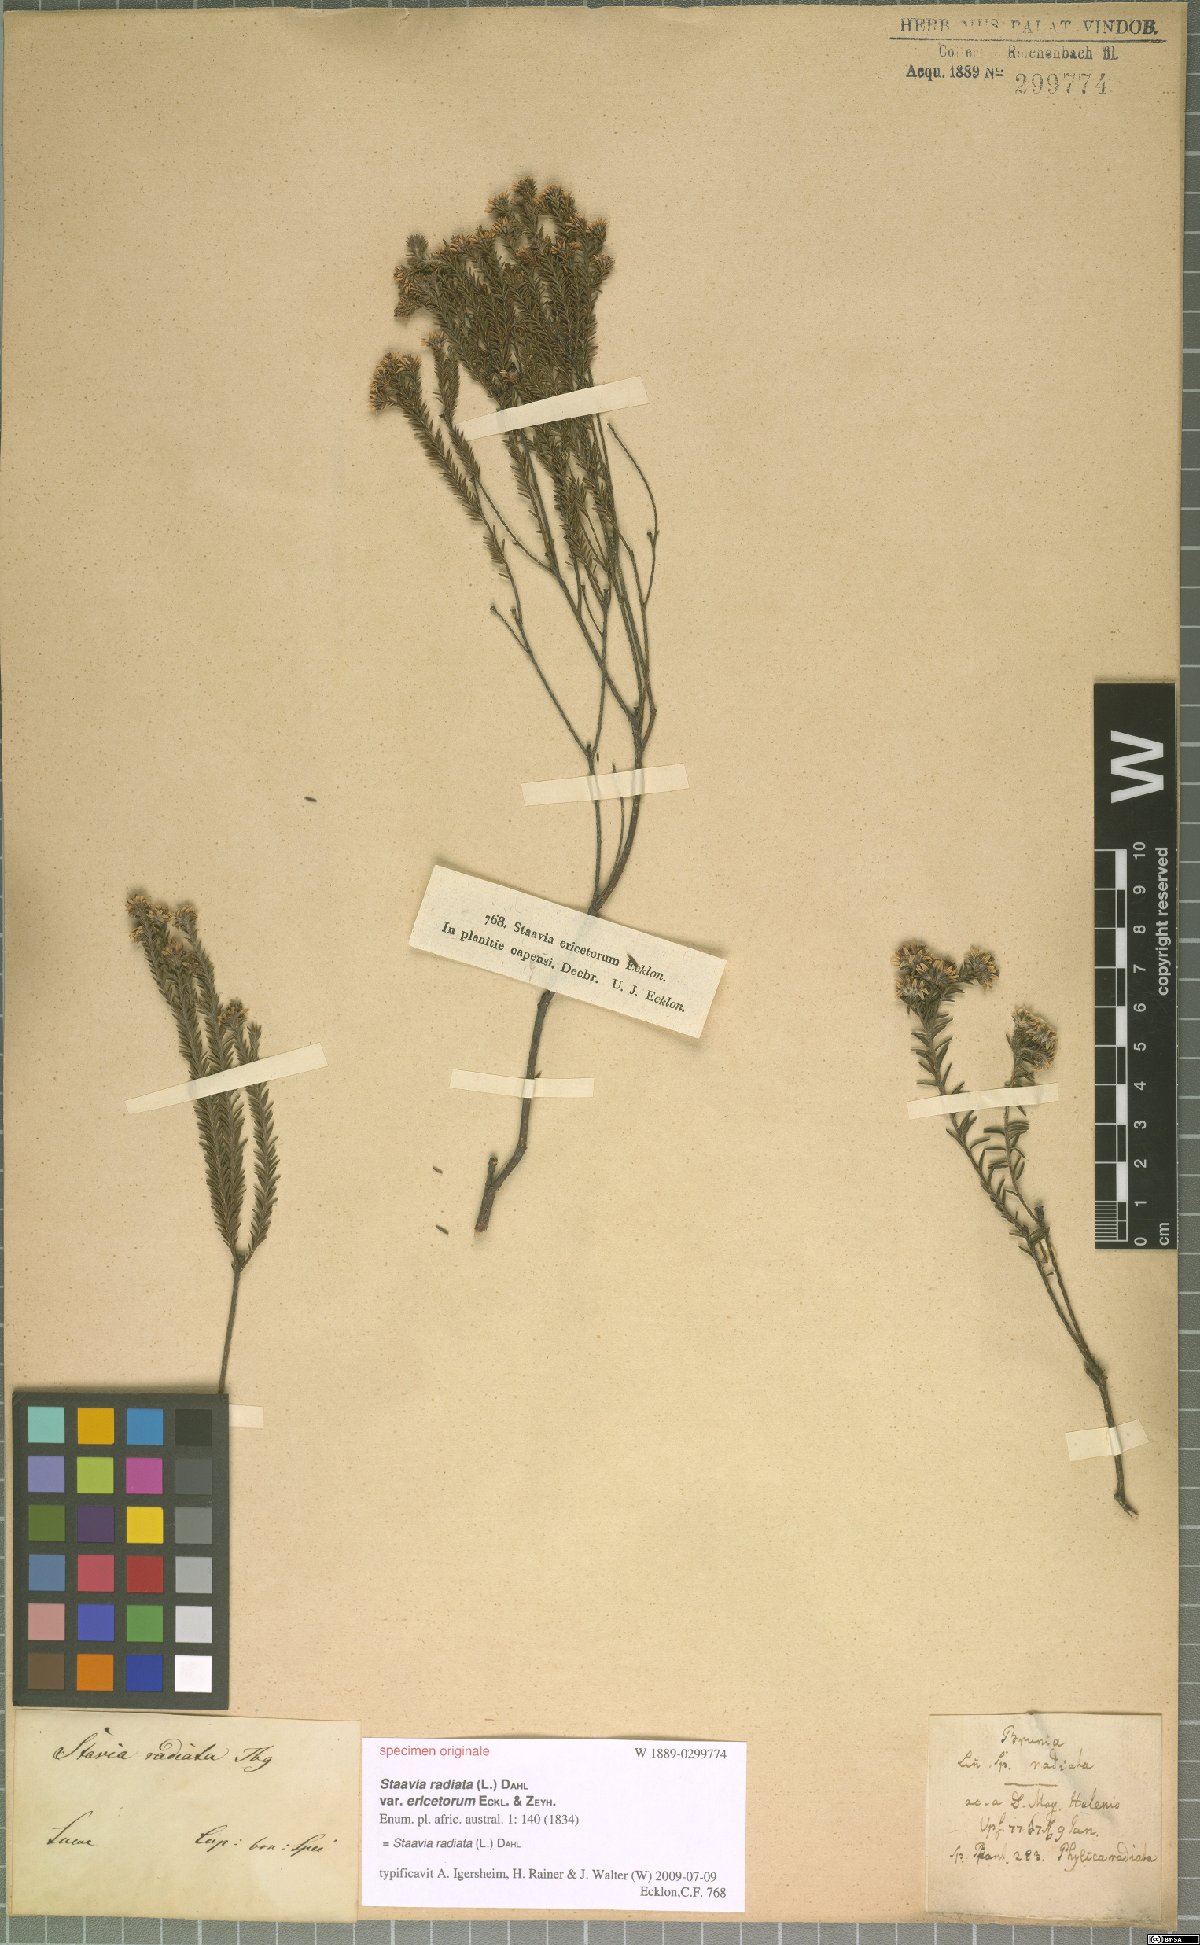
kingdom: Plantae
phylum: Tracheophyta
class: Magnoliopsida
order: Bruniales
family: Bruniaceae
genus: Staavia
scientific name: Staavia radiata
